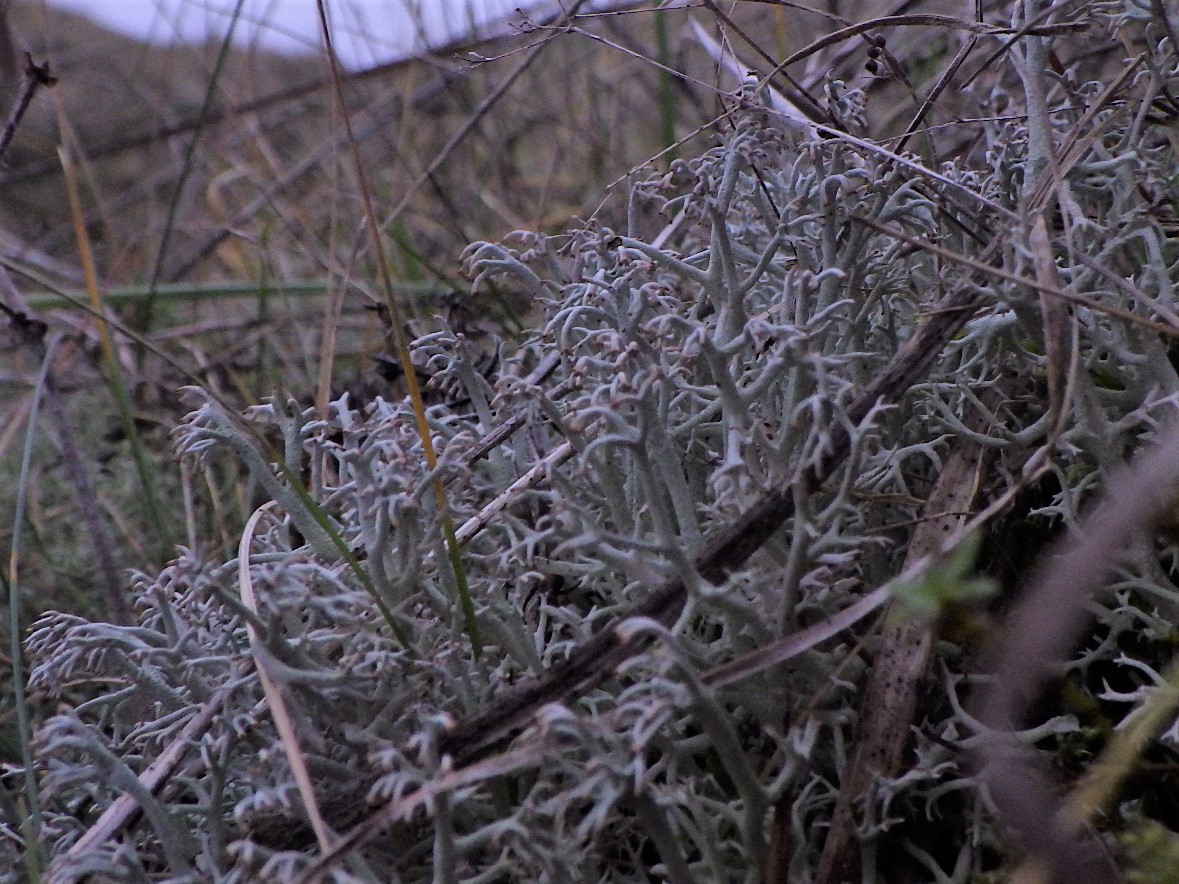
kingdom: Fungi
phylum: Ascomycota
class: Lecanoromycetes
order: Lecanorales
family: Cladoniaceae
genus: Cladonia
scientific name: Cladonia rangiferina
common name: askegrå rensdyrlav
